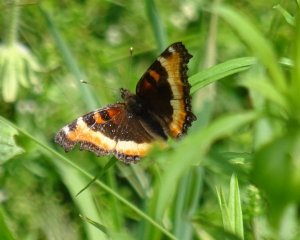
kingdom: Animalia
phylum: Arthropoda
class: Insecta
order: Lepidoptera
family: Nymphalidae
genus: Aglais
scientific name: Aglais milberti
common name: Milbert's Tortoiseshell
